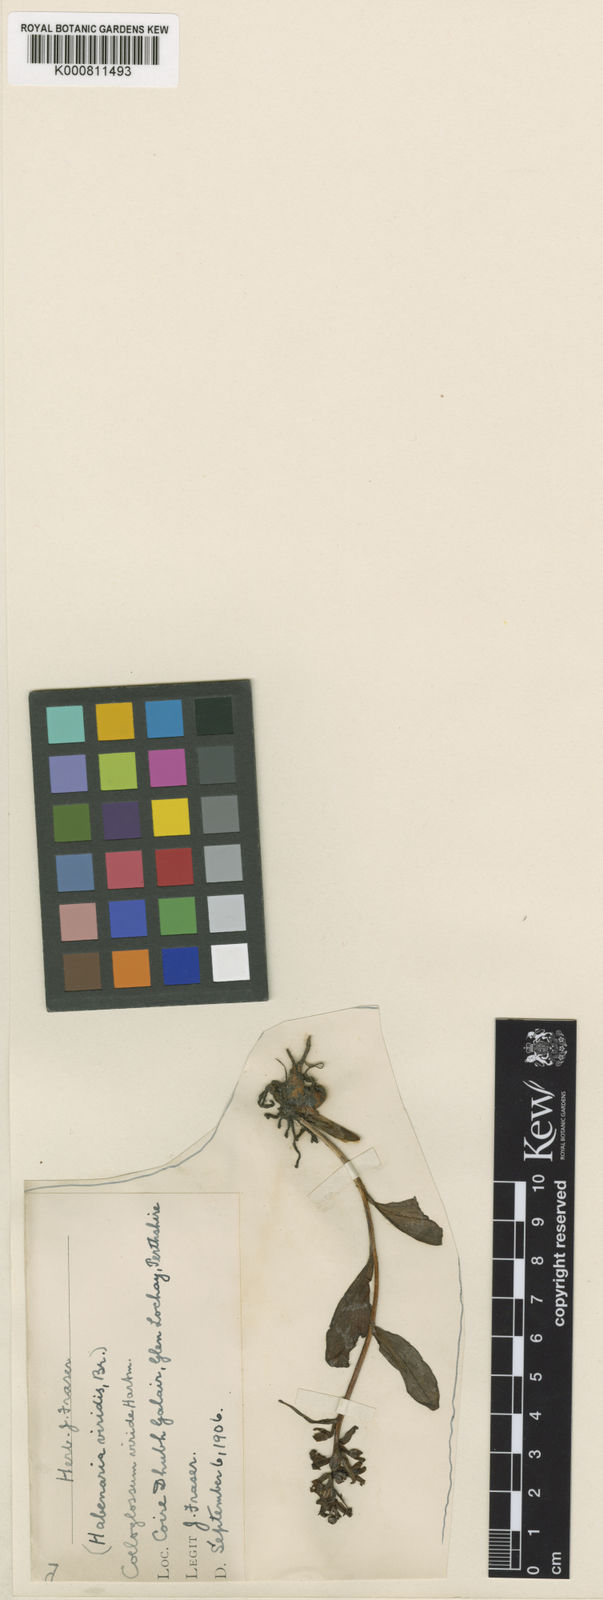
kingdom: Plantae
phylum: Tracheophyta
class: Liliopsida
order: Asparagales
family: Orchidaceae
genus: Dactylorhiza
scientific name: Dactylorhiza viridis
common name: Longbract frog orchid
